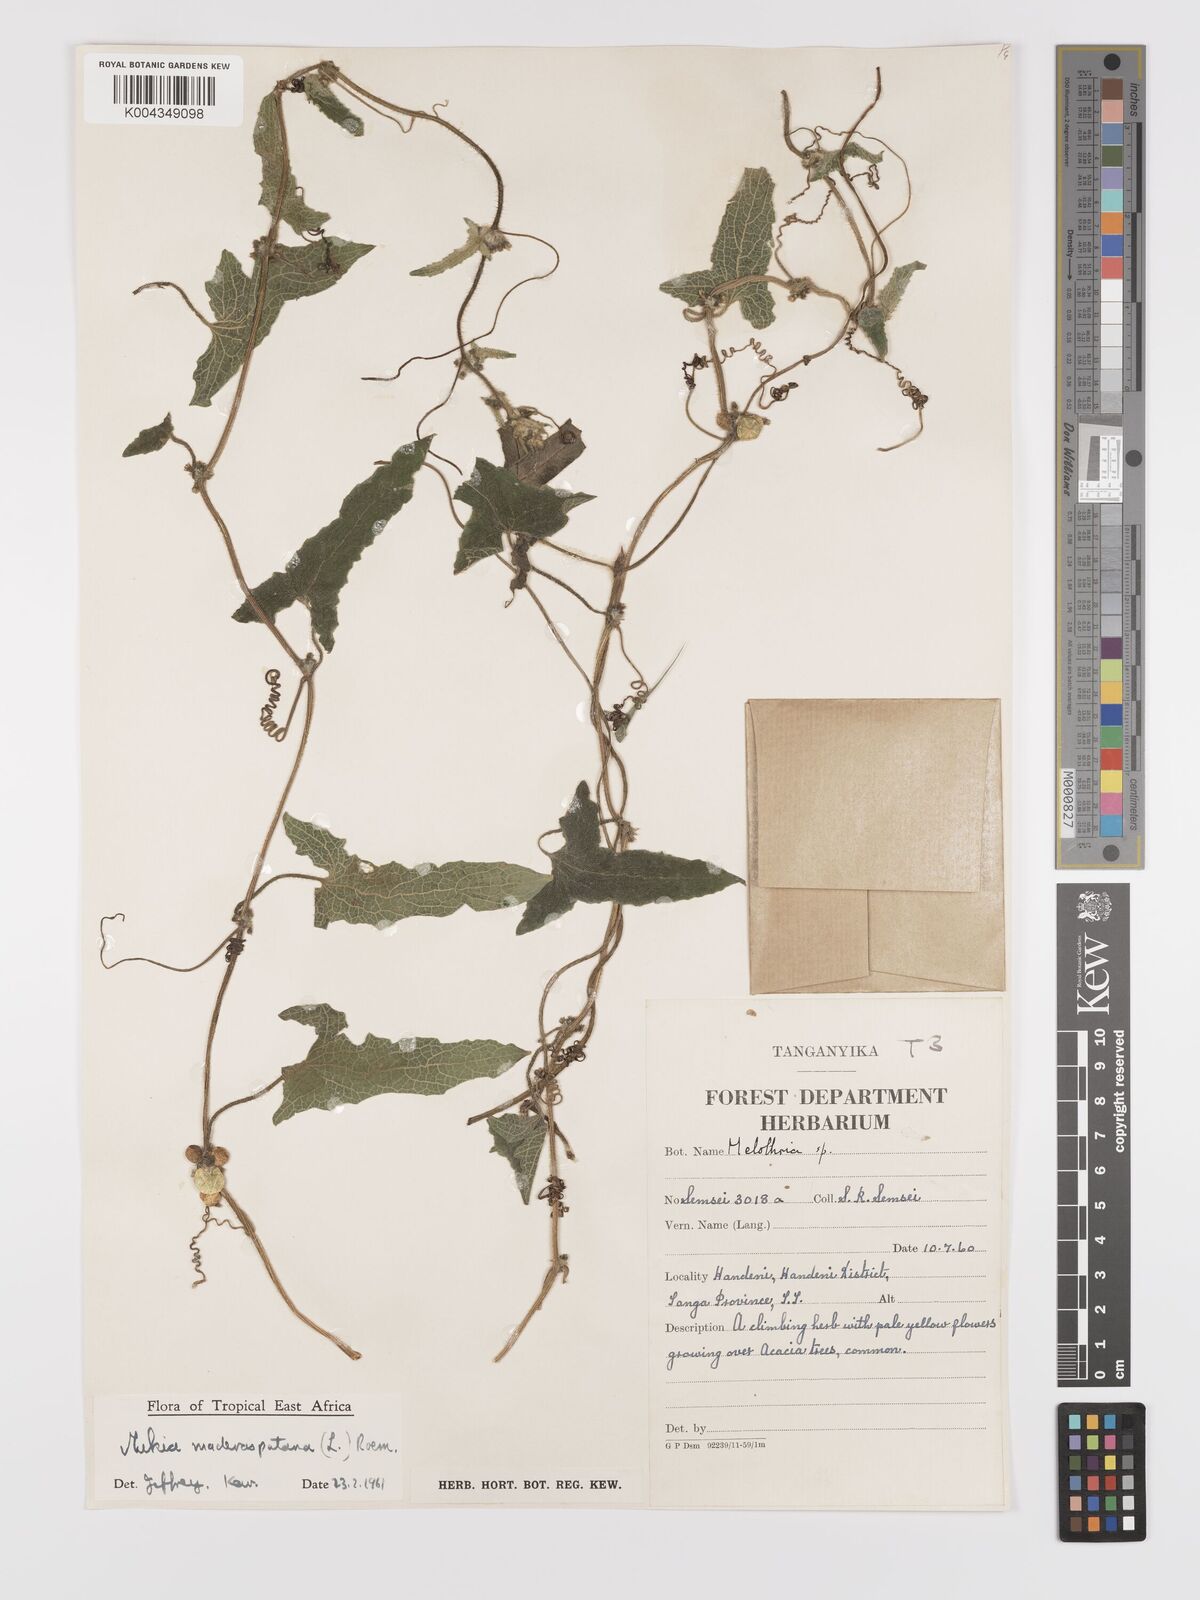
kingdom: Plantae
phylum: Tracheophyta
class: Magnoliopsida
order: Cucurbitales
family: Cucurbitaceae
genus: Cucumis
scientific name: Cucumis maderaspatanus
